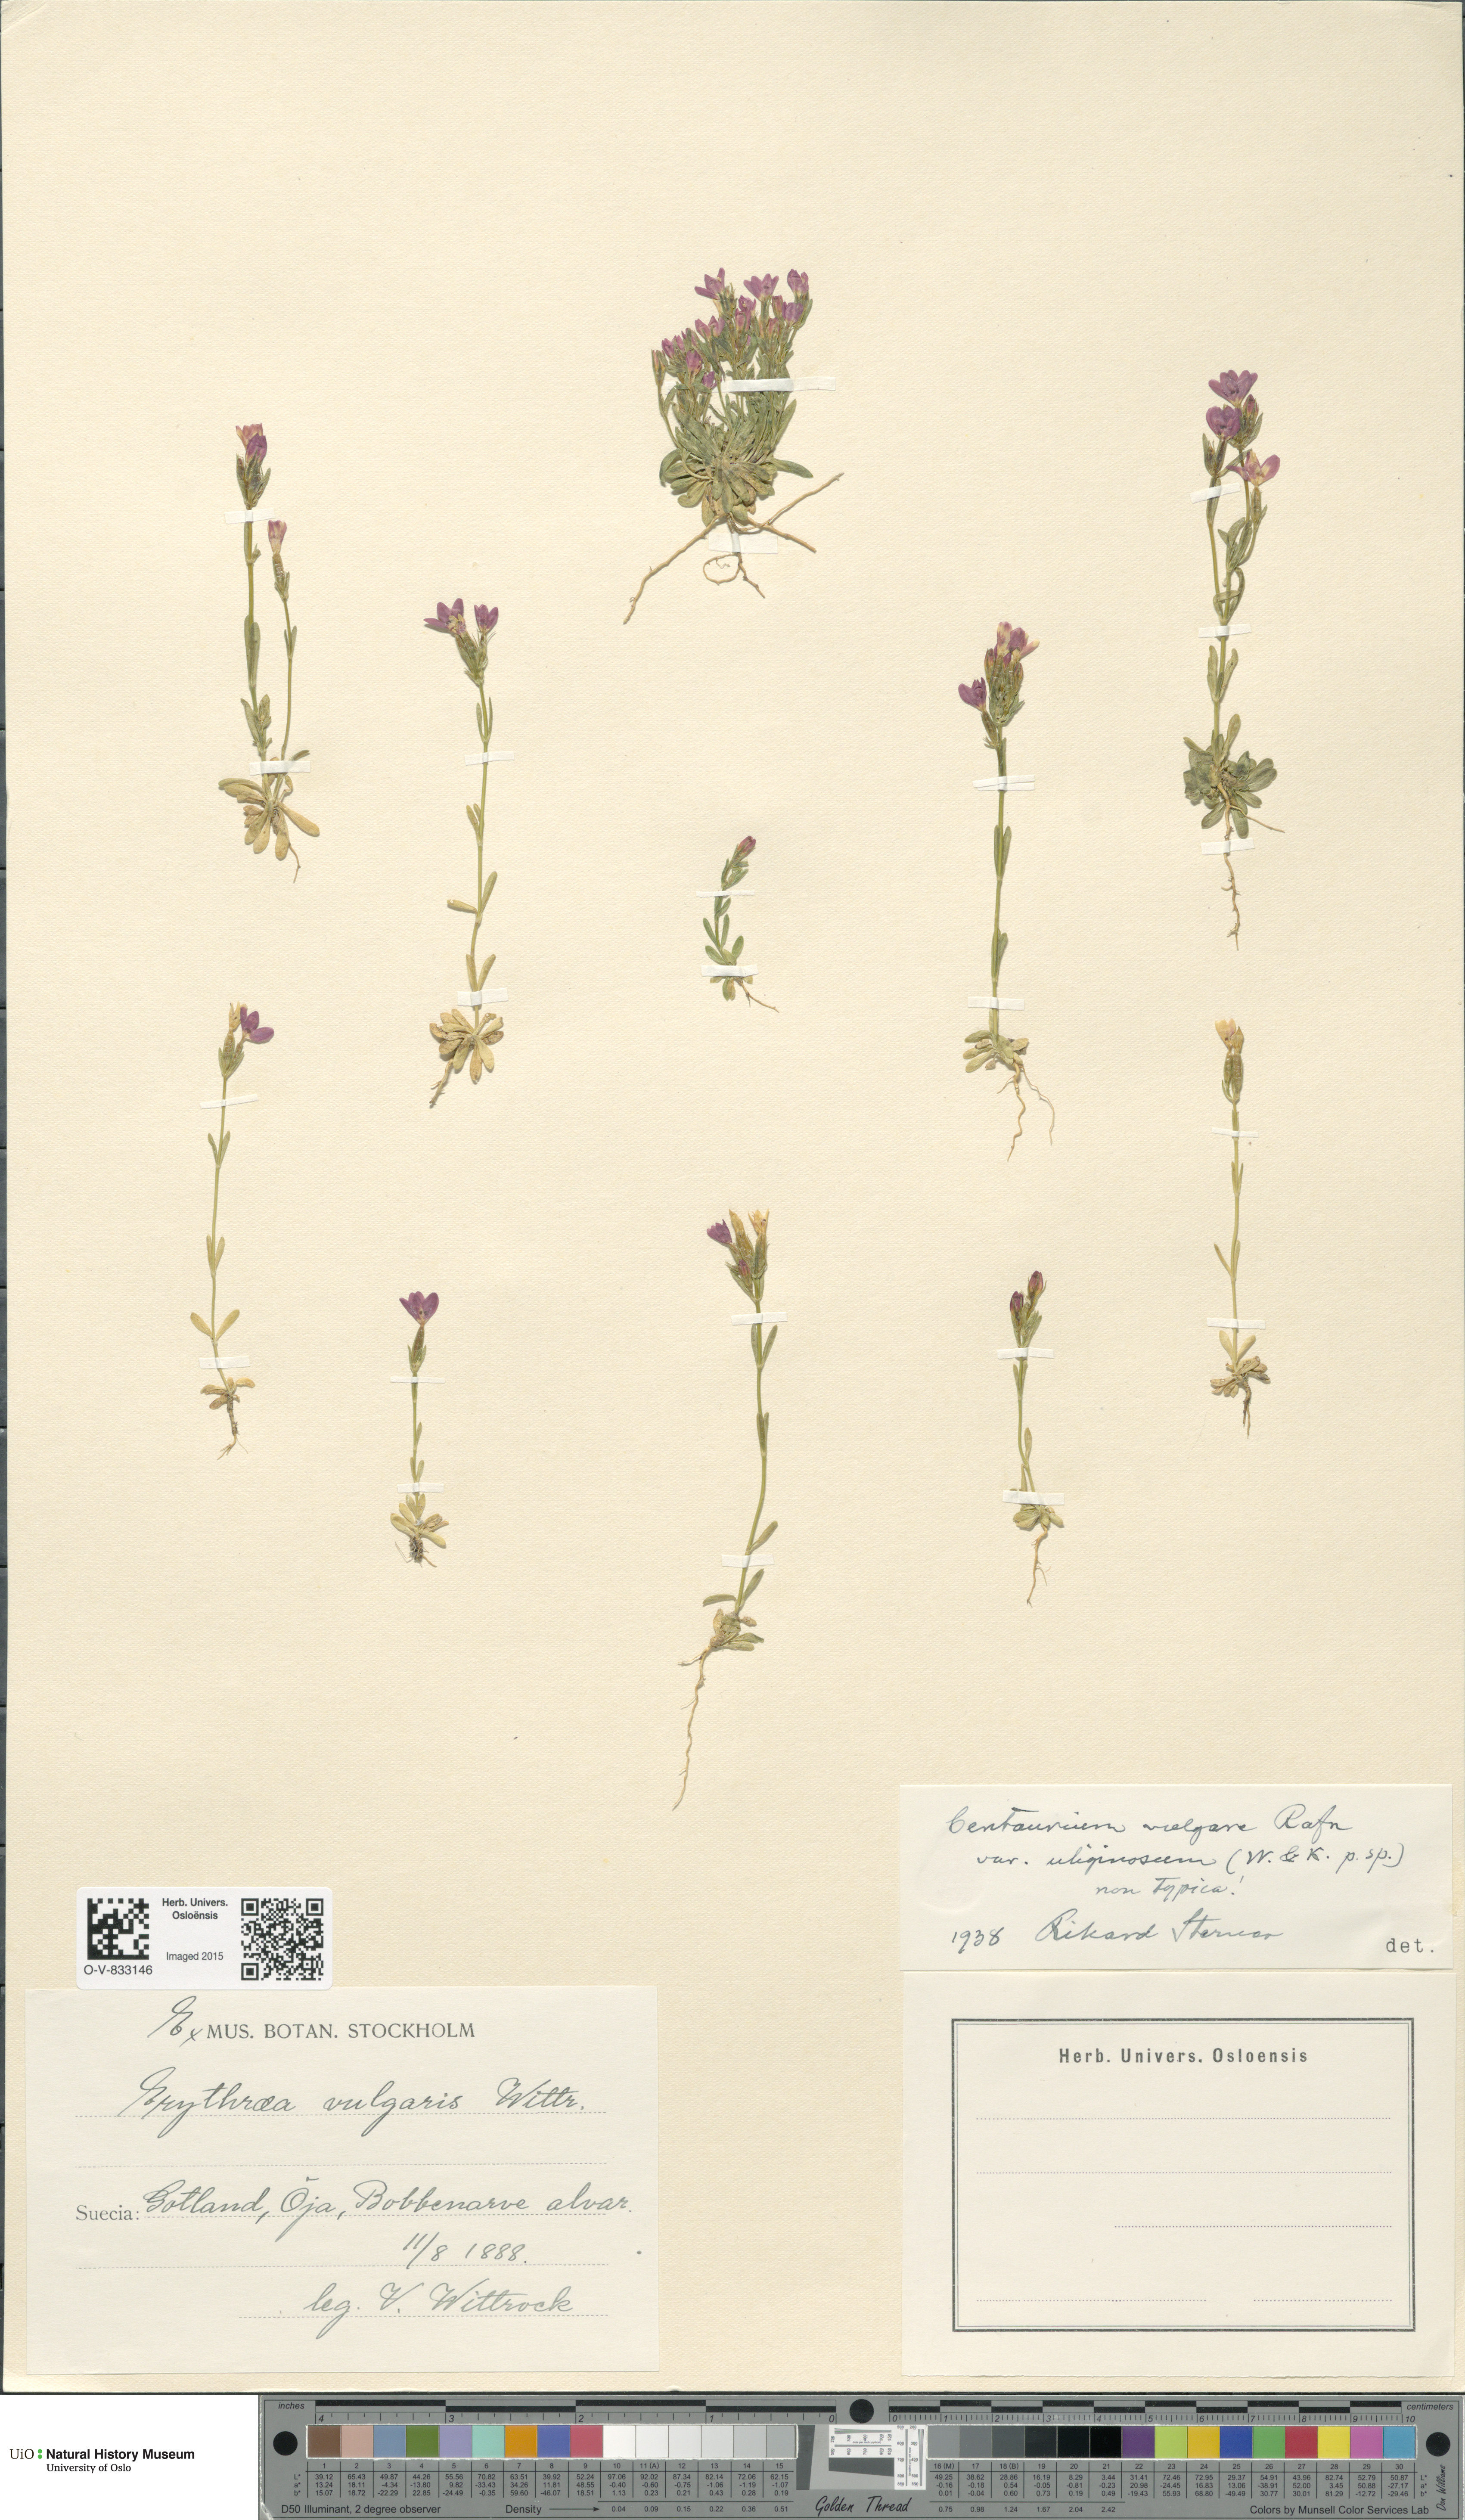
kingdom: Plantae
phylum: Tracheophyta
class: Magnoliopsida
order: Gentianales
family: Gentianaceae
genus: Centaurium
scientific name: Centaurium littorale
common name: Seaside centaury
